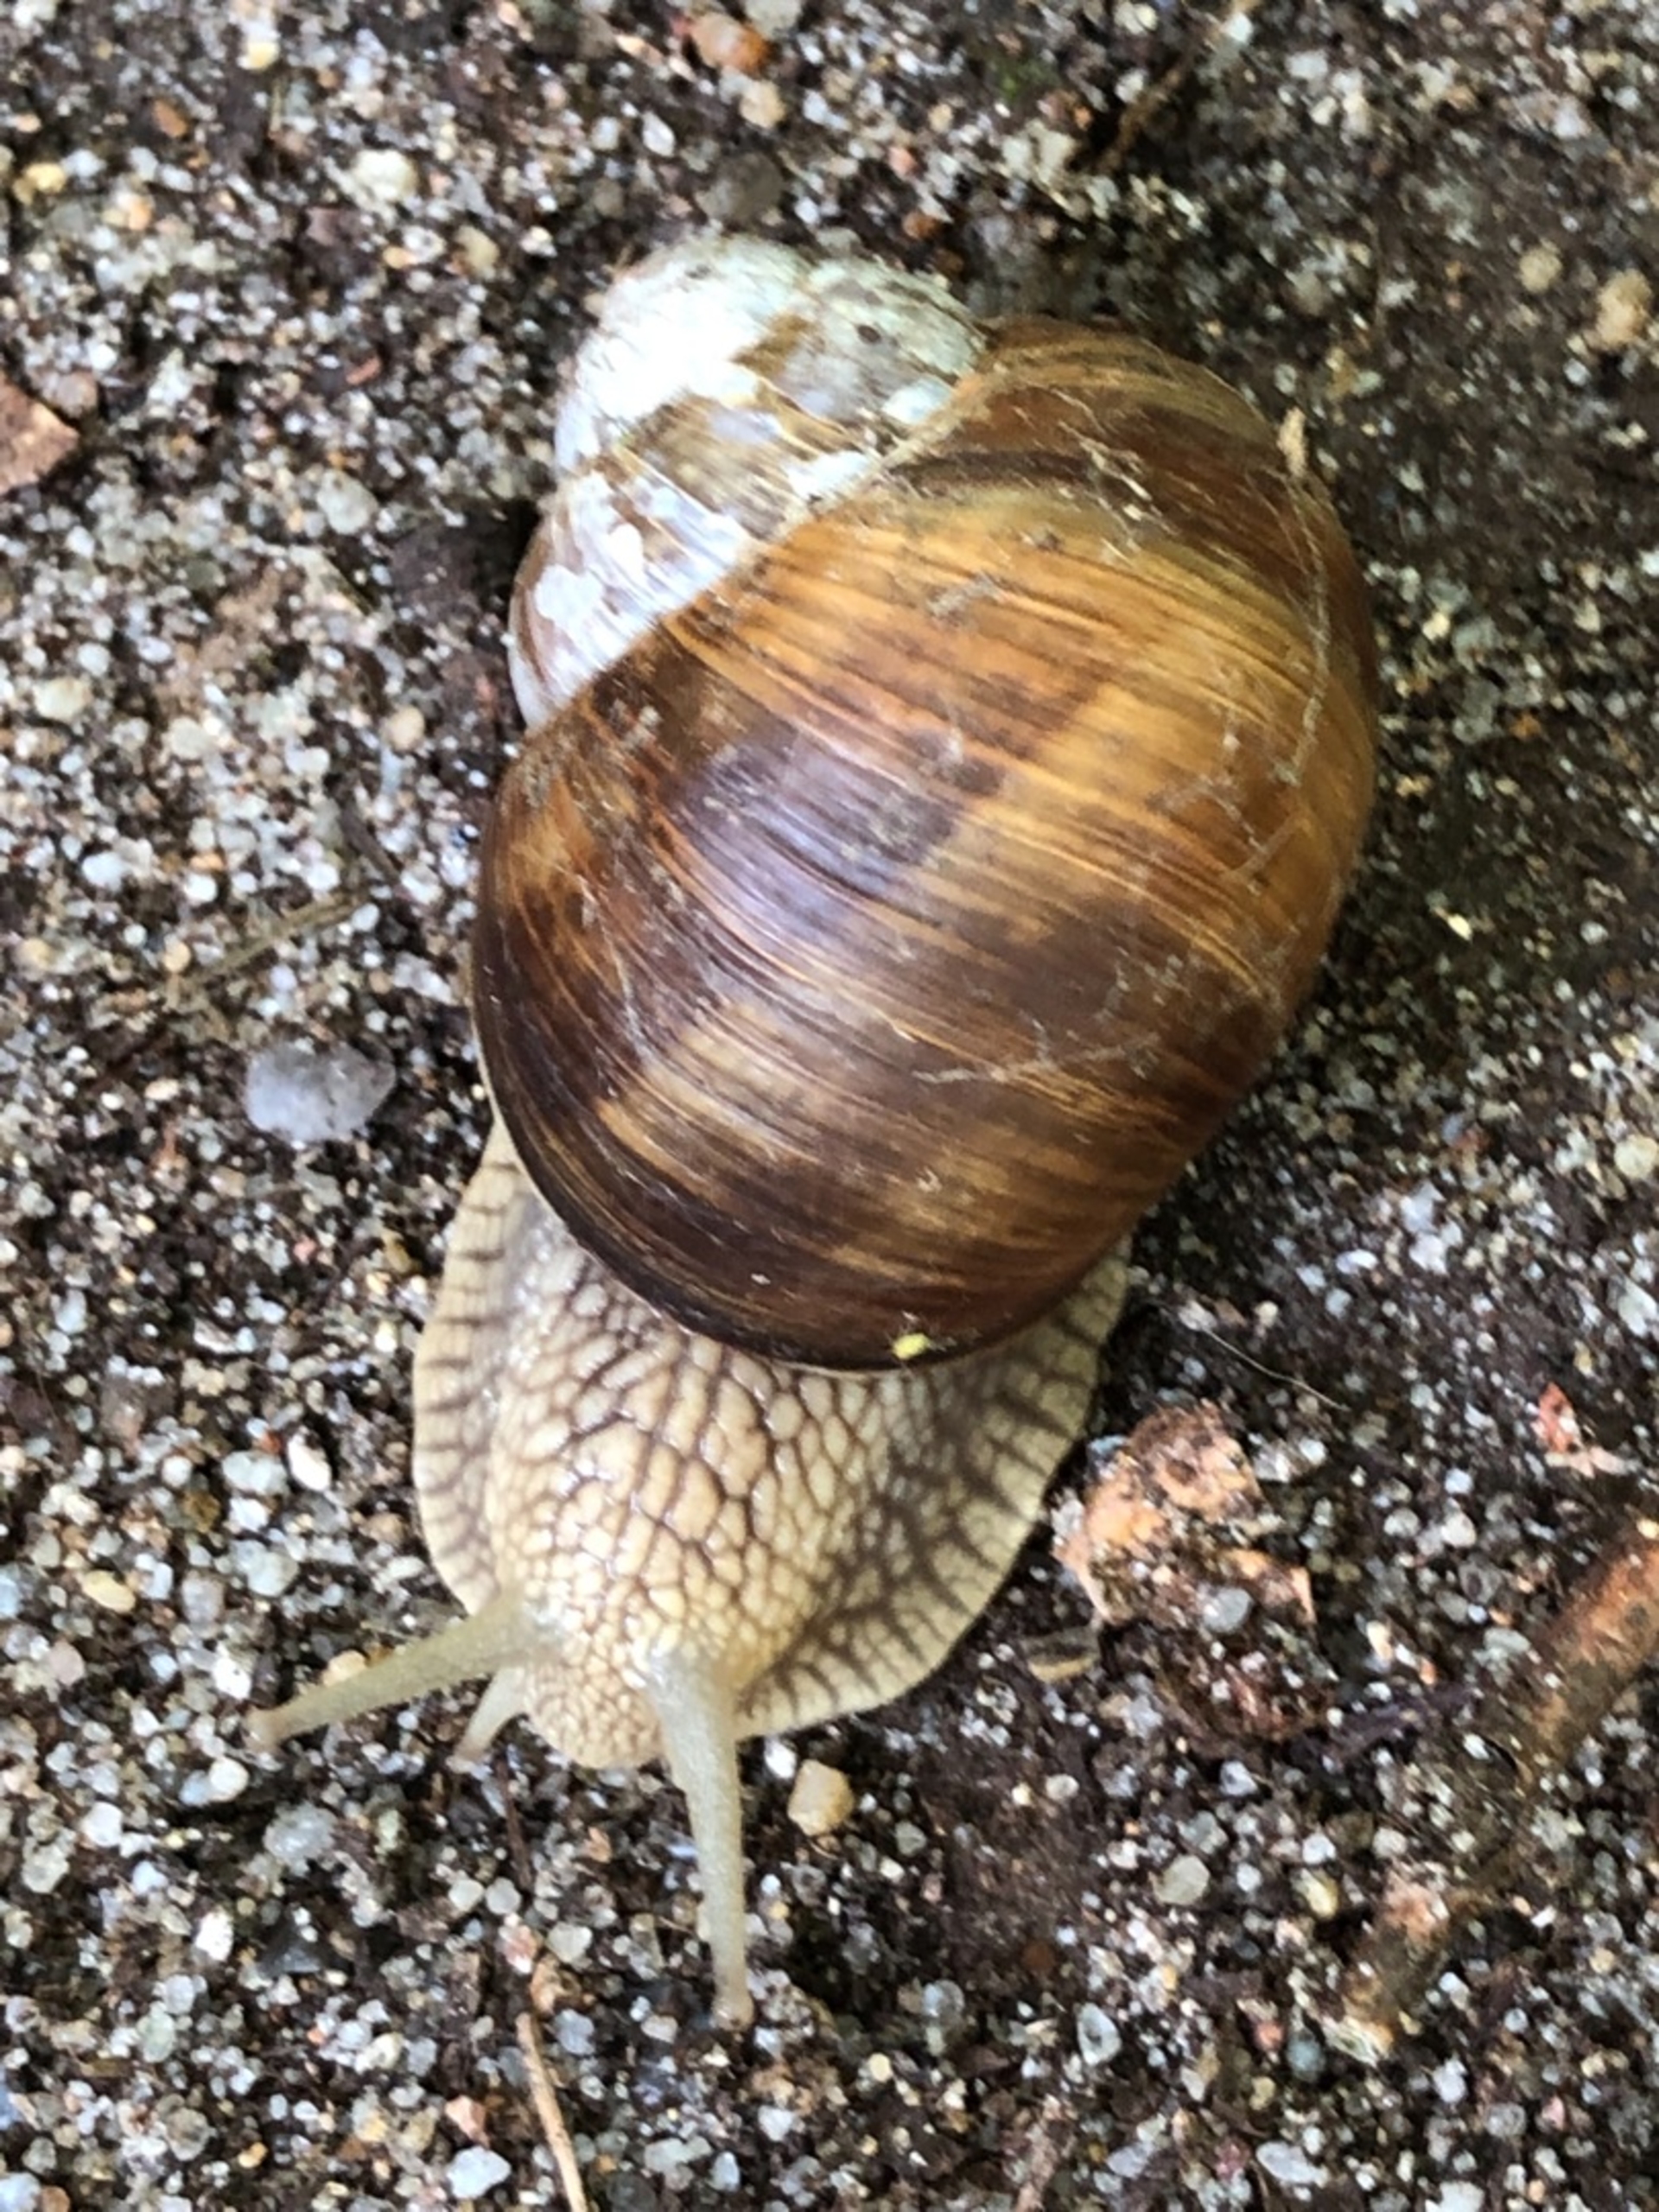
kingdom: Animalia
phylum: Mollusca
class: Gastropoda
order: Stylommatophora
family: Helicidae
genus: Helix
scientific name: Helix pomatia
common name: Vinbjergsnegl
